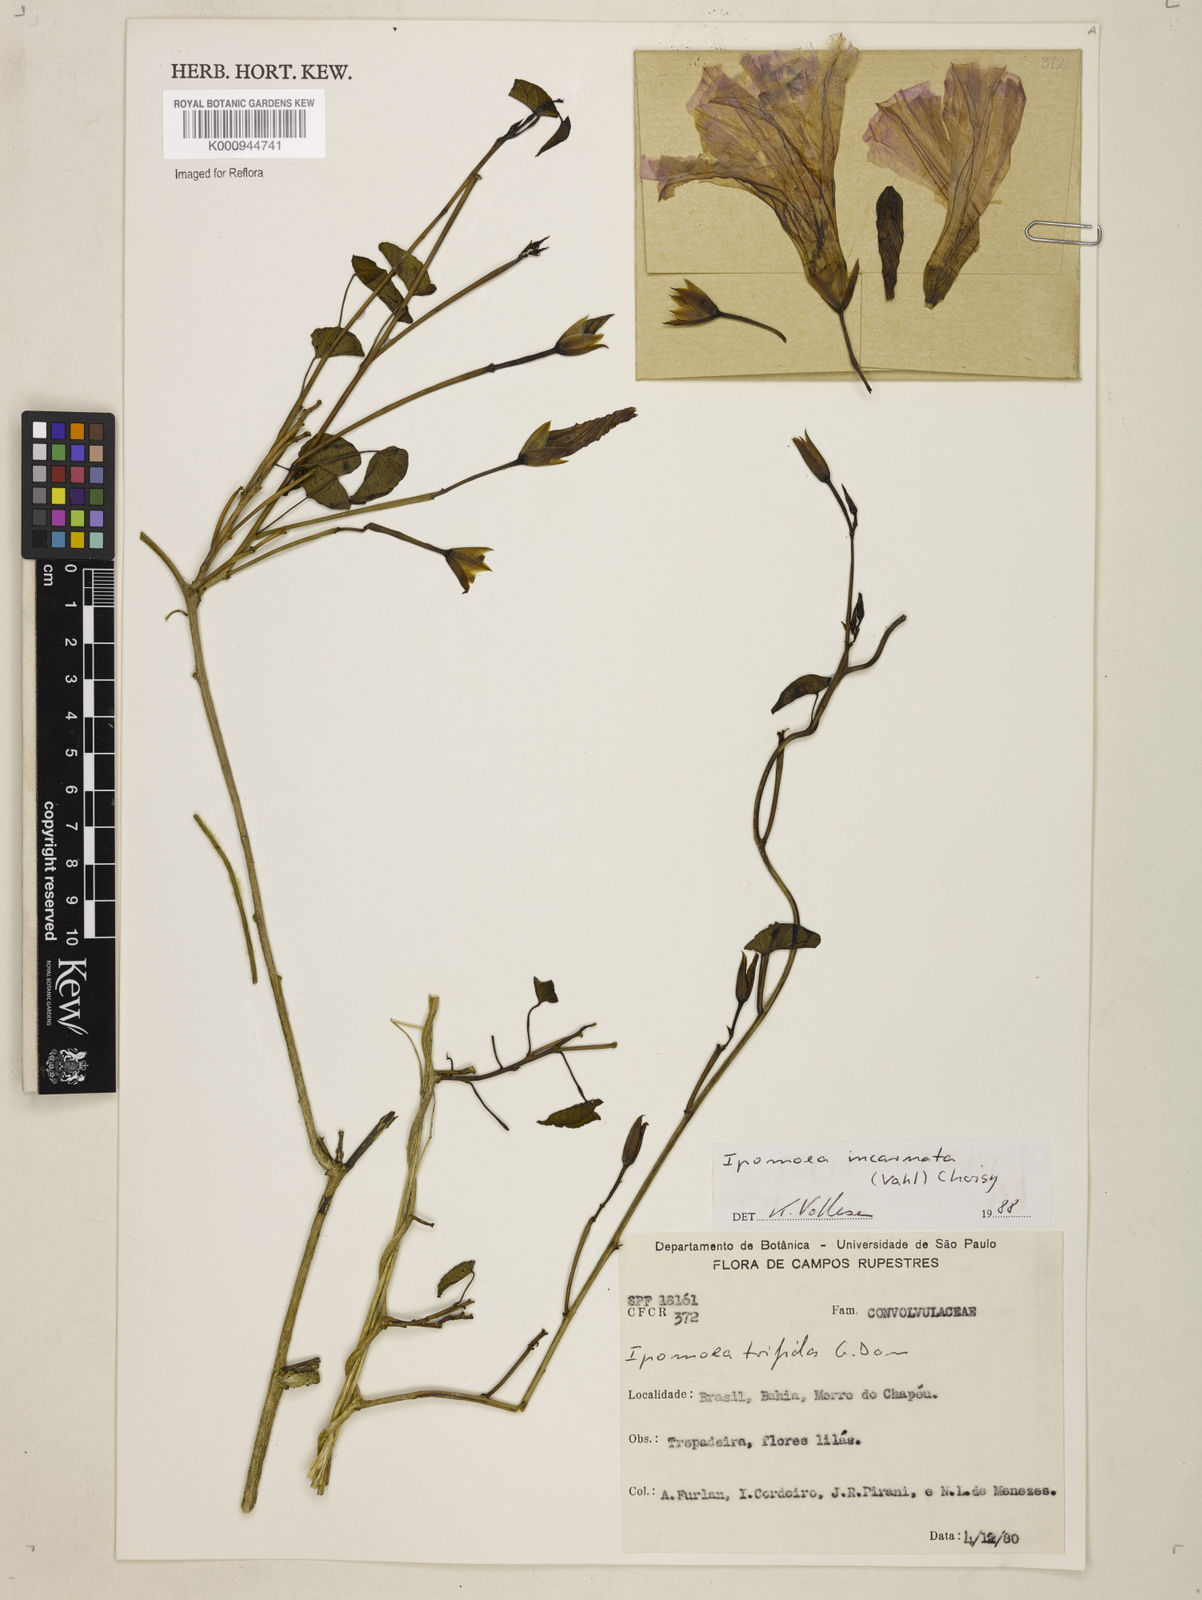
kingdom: Plantae
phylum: Tracheophyta
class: Magnoliopsida
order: Solanales
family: Convolvulaceae
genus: Ipomoea
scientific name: Ipomoea incarnata
